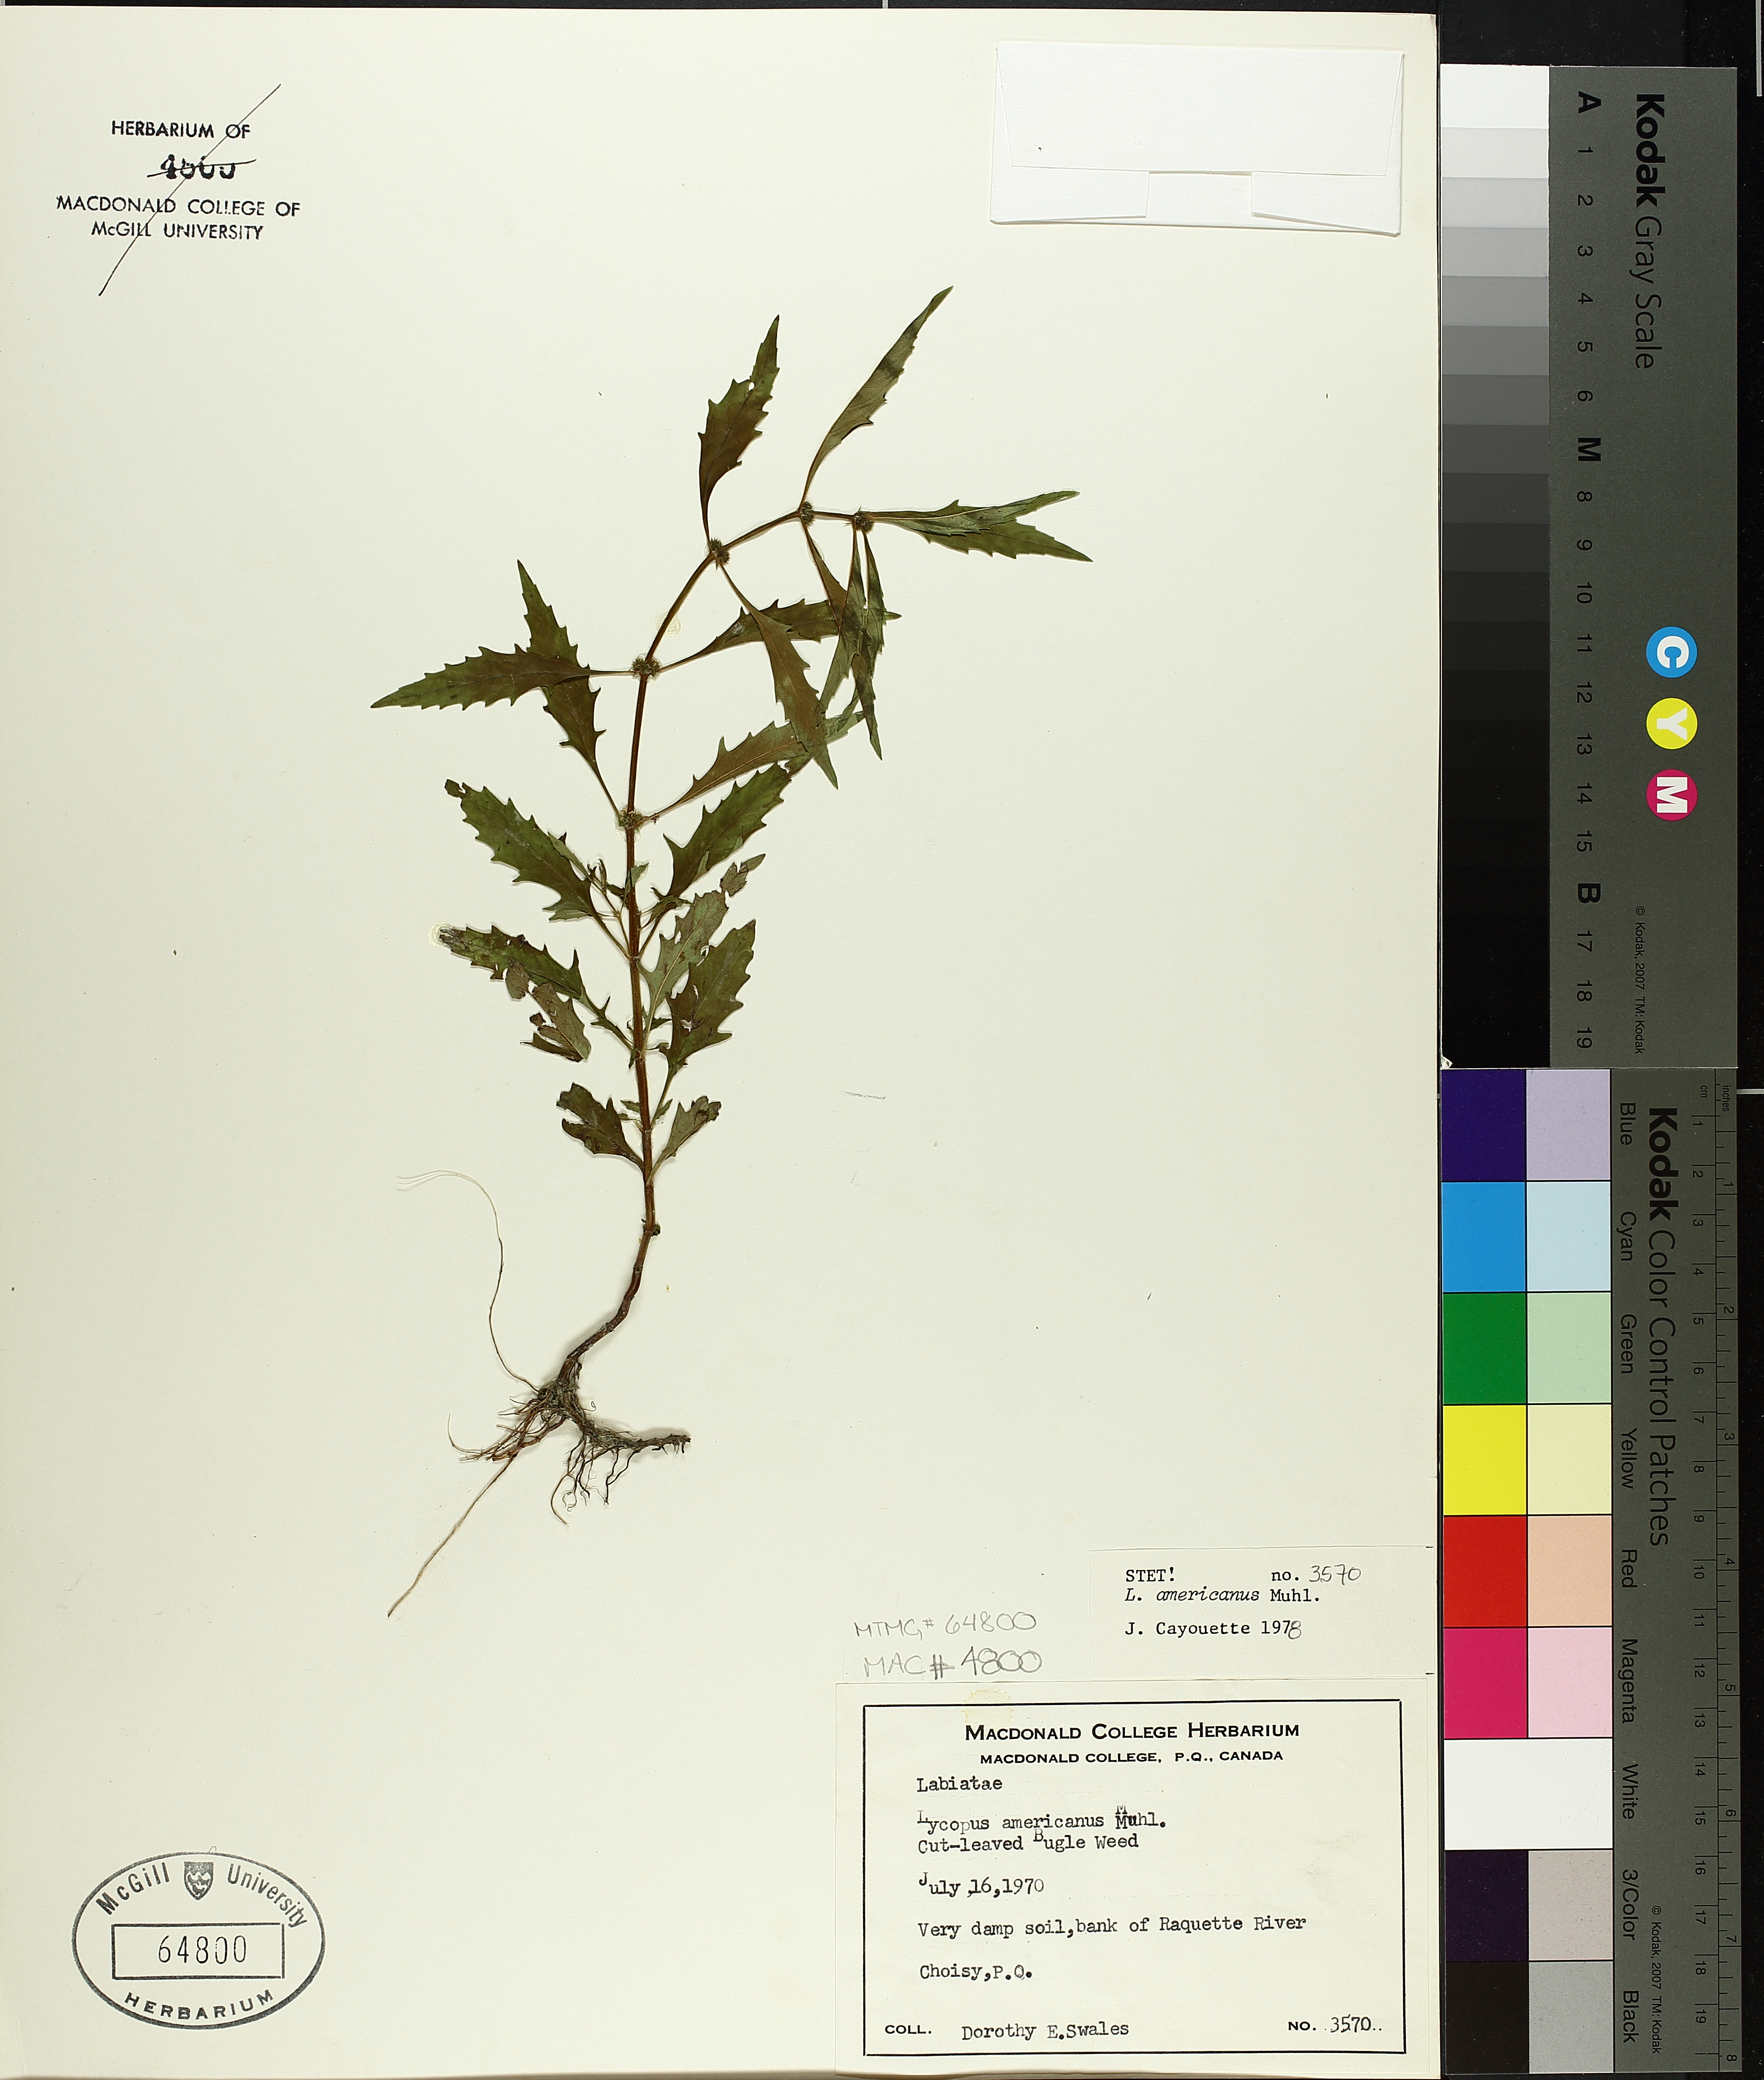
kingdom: Plantae
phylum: Tracheophyta
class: Magnoliopsida
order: Lamiales
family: Lamiaceae
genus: Lycopus
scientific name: Lycopus americanus
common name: American bugleweed
